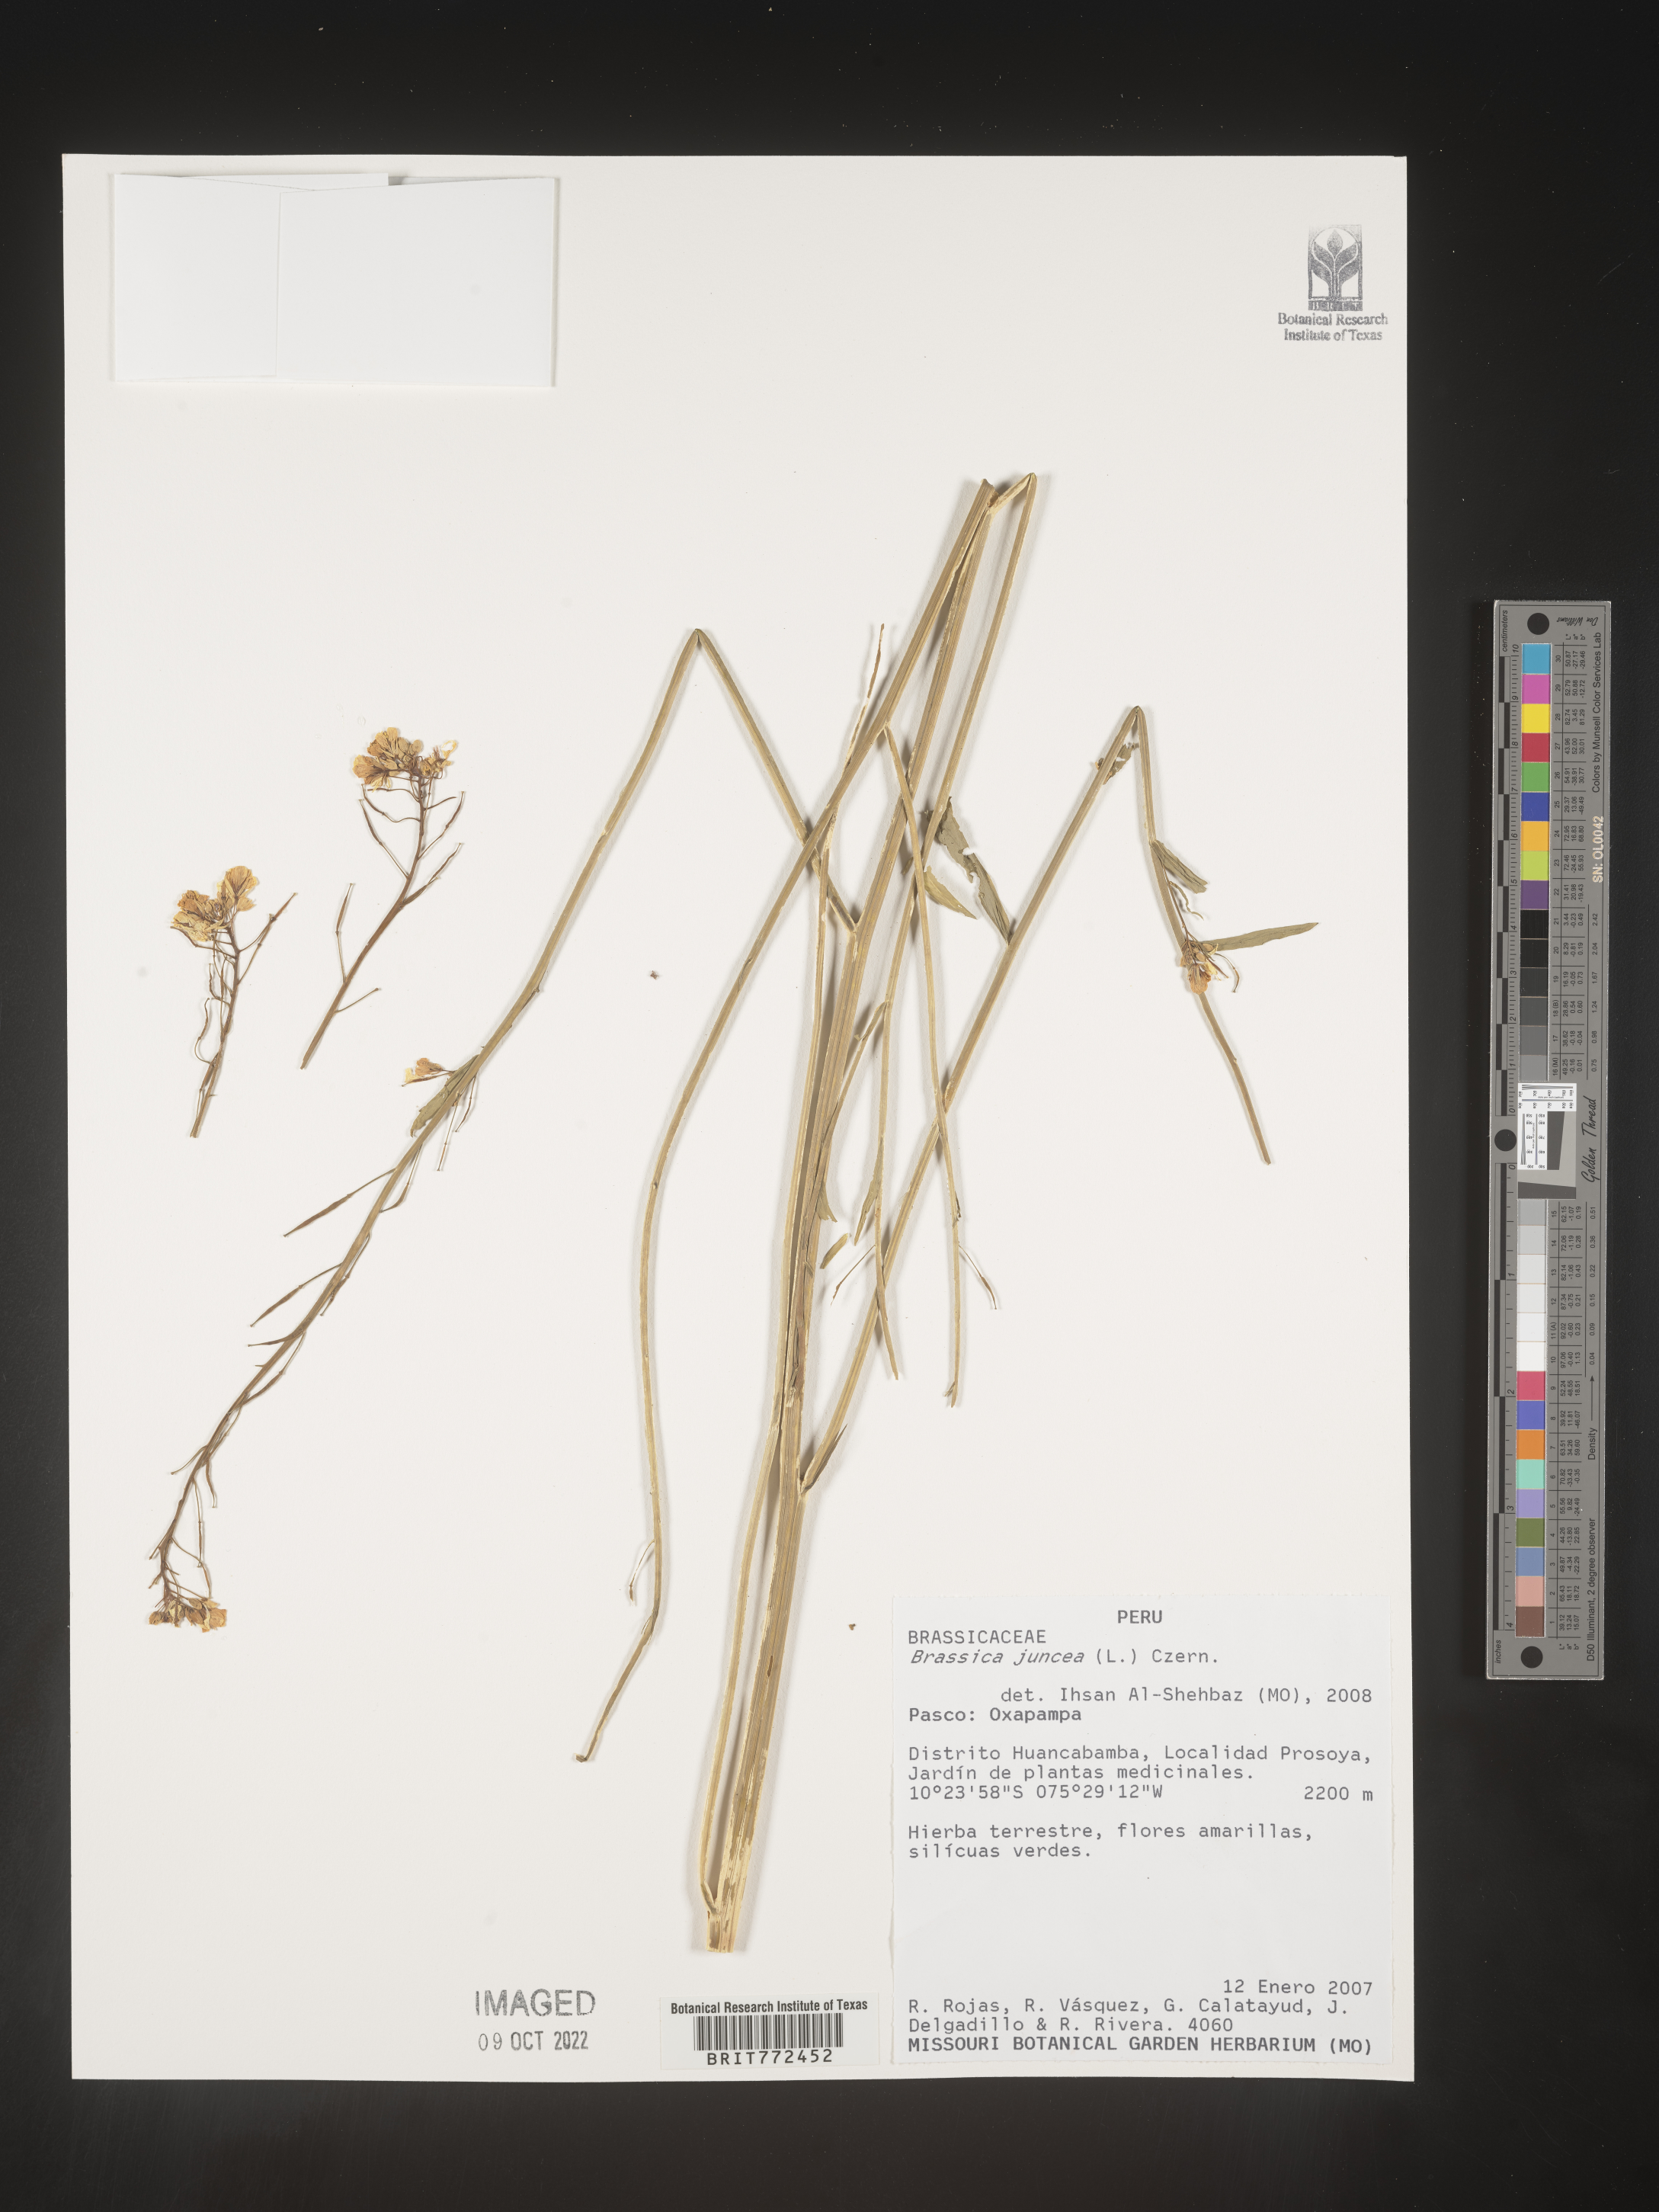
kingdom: Plantae
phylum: Tracheophyta
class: Magnoliopsida
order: Brassicales
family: Brassicaceae
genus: Brassica
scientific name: Brassica
